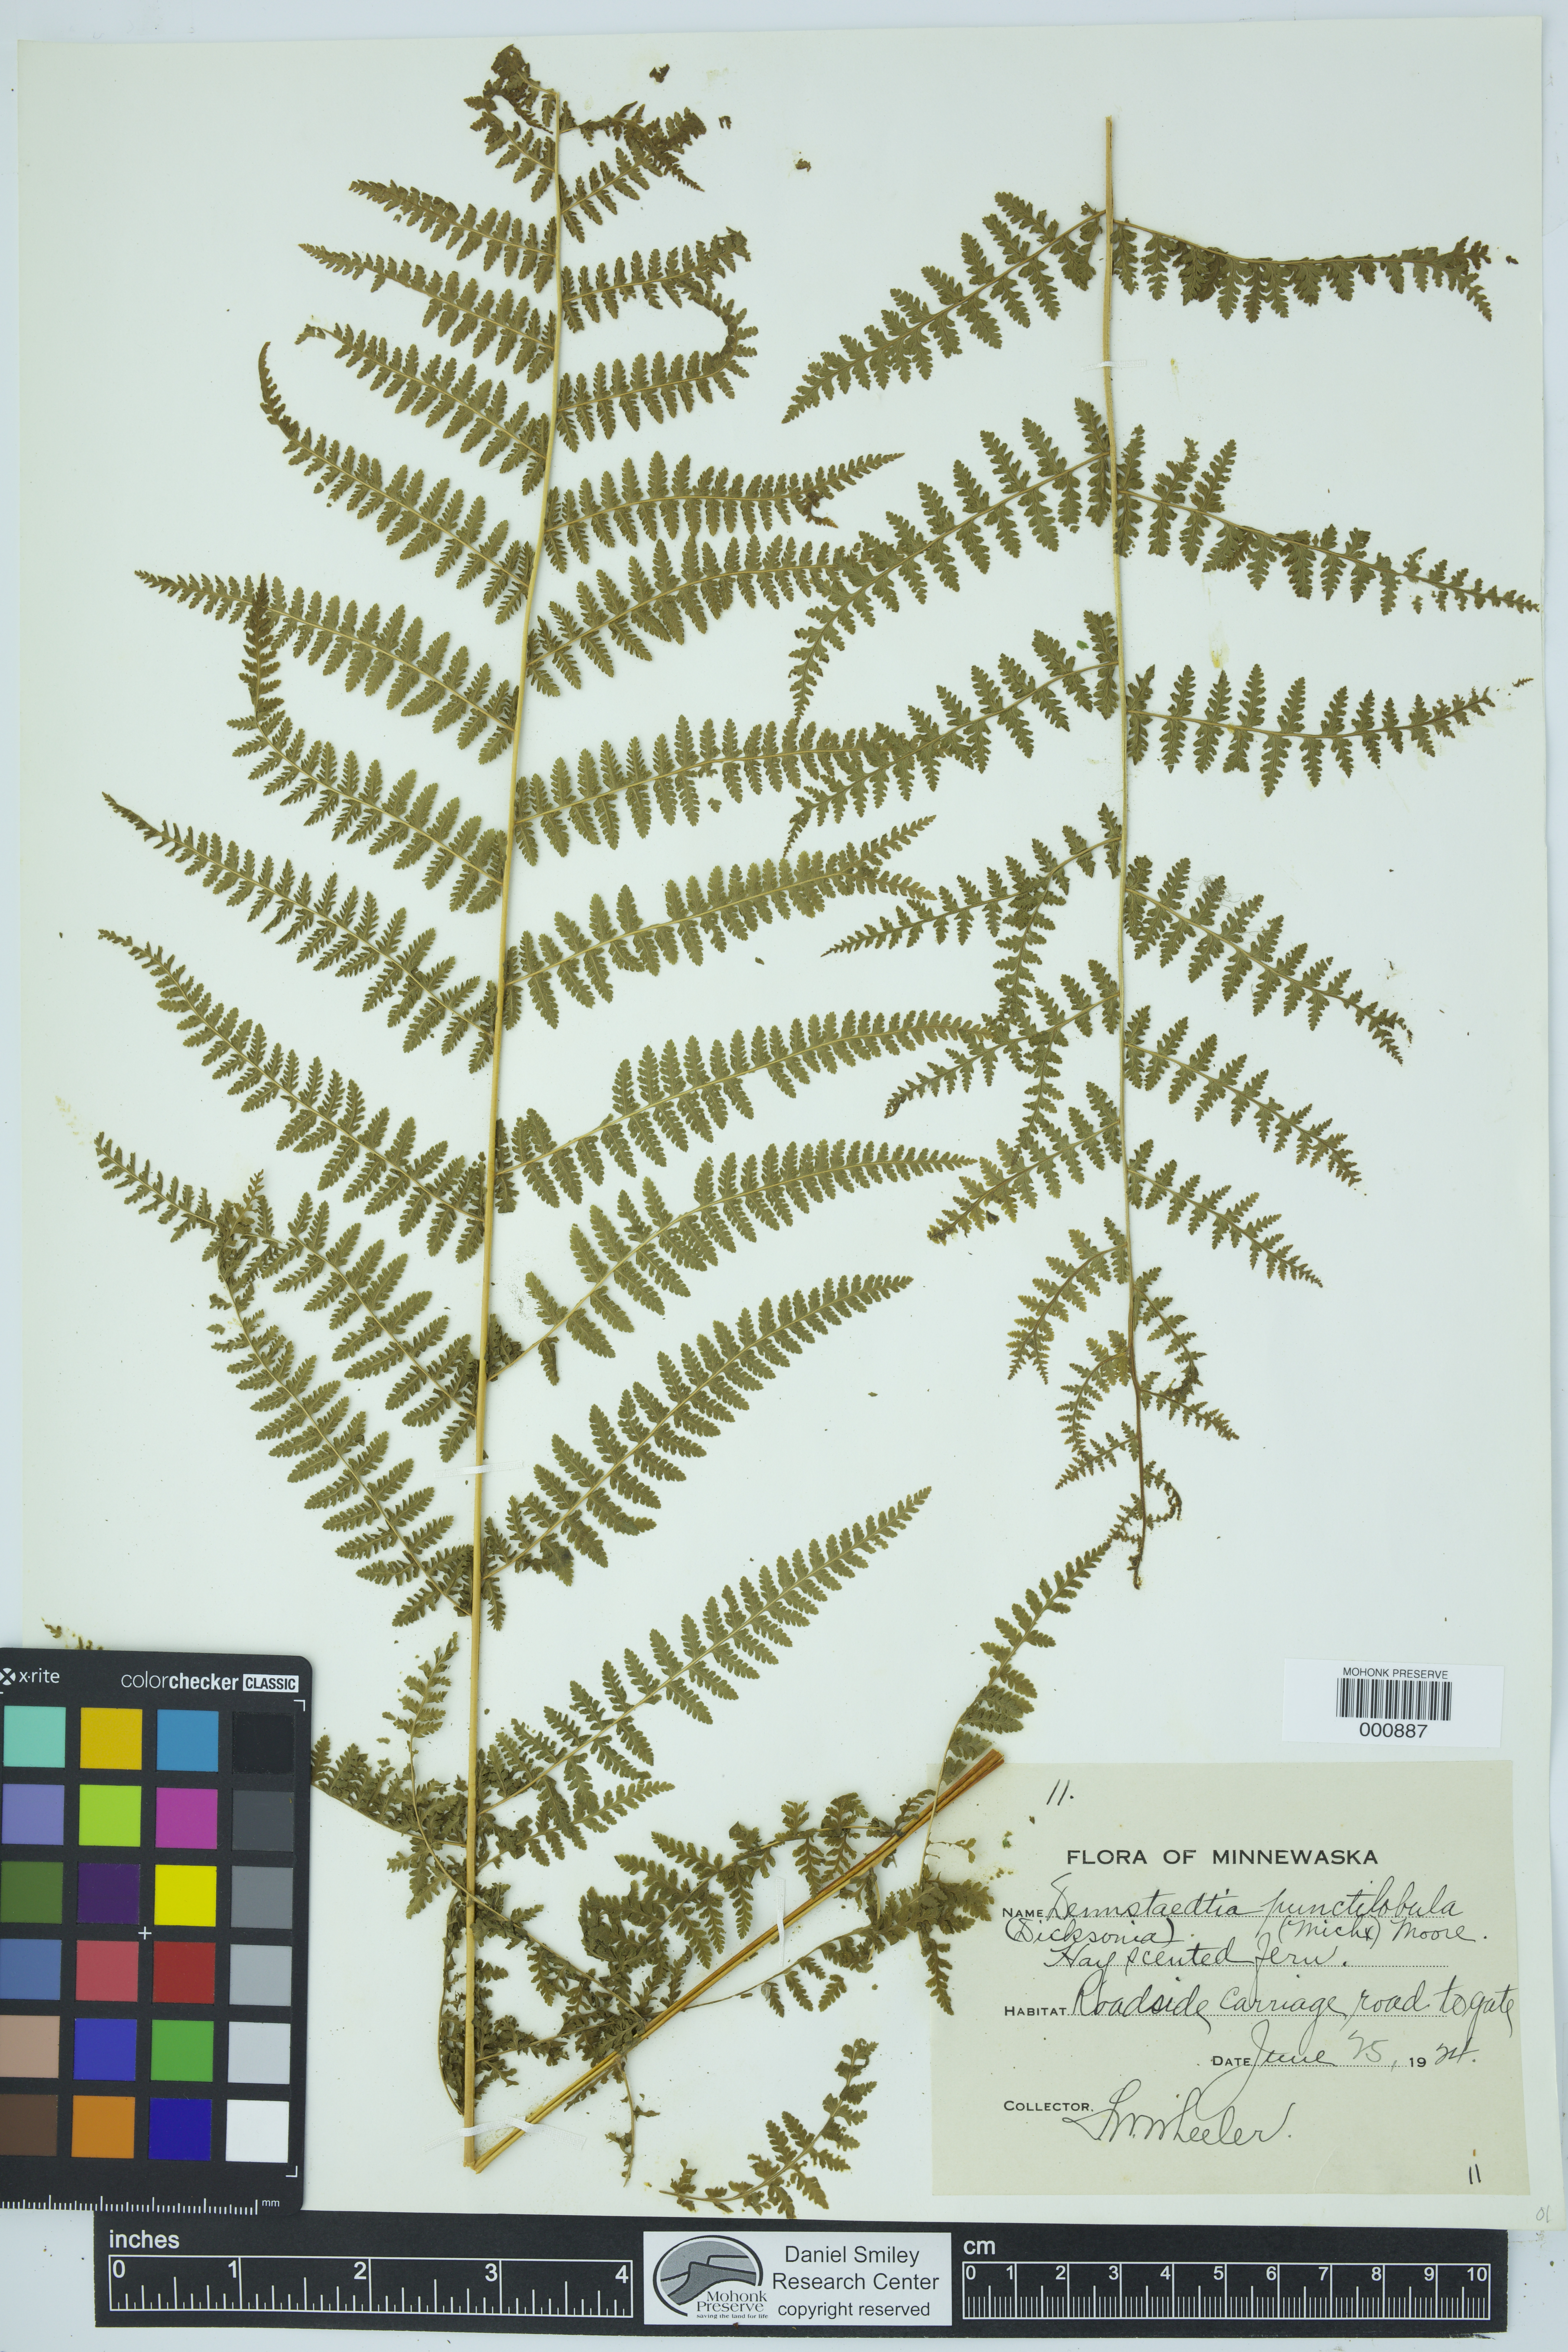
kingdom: Plantae
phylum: Tracheophyta
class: Polypodiopsida
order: Polypodiales
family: Dennstaedtiaceae
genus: Sitobolium
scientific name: Sitobolium punctilobum
